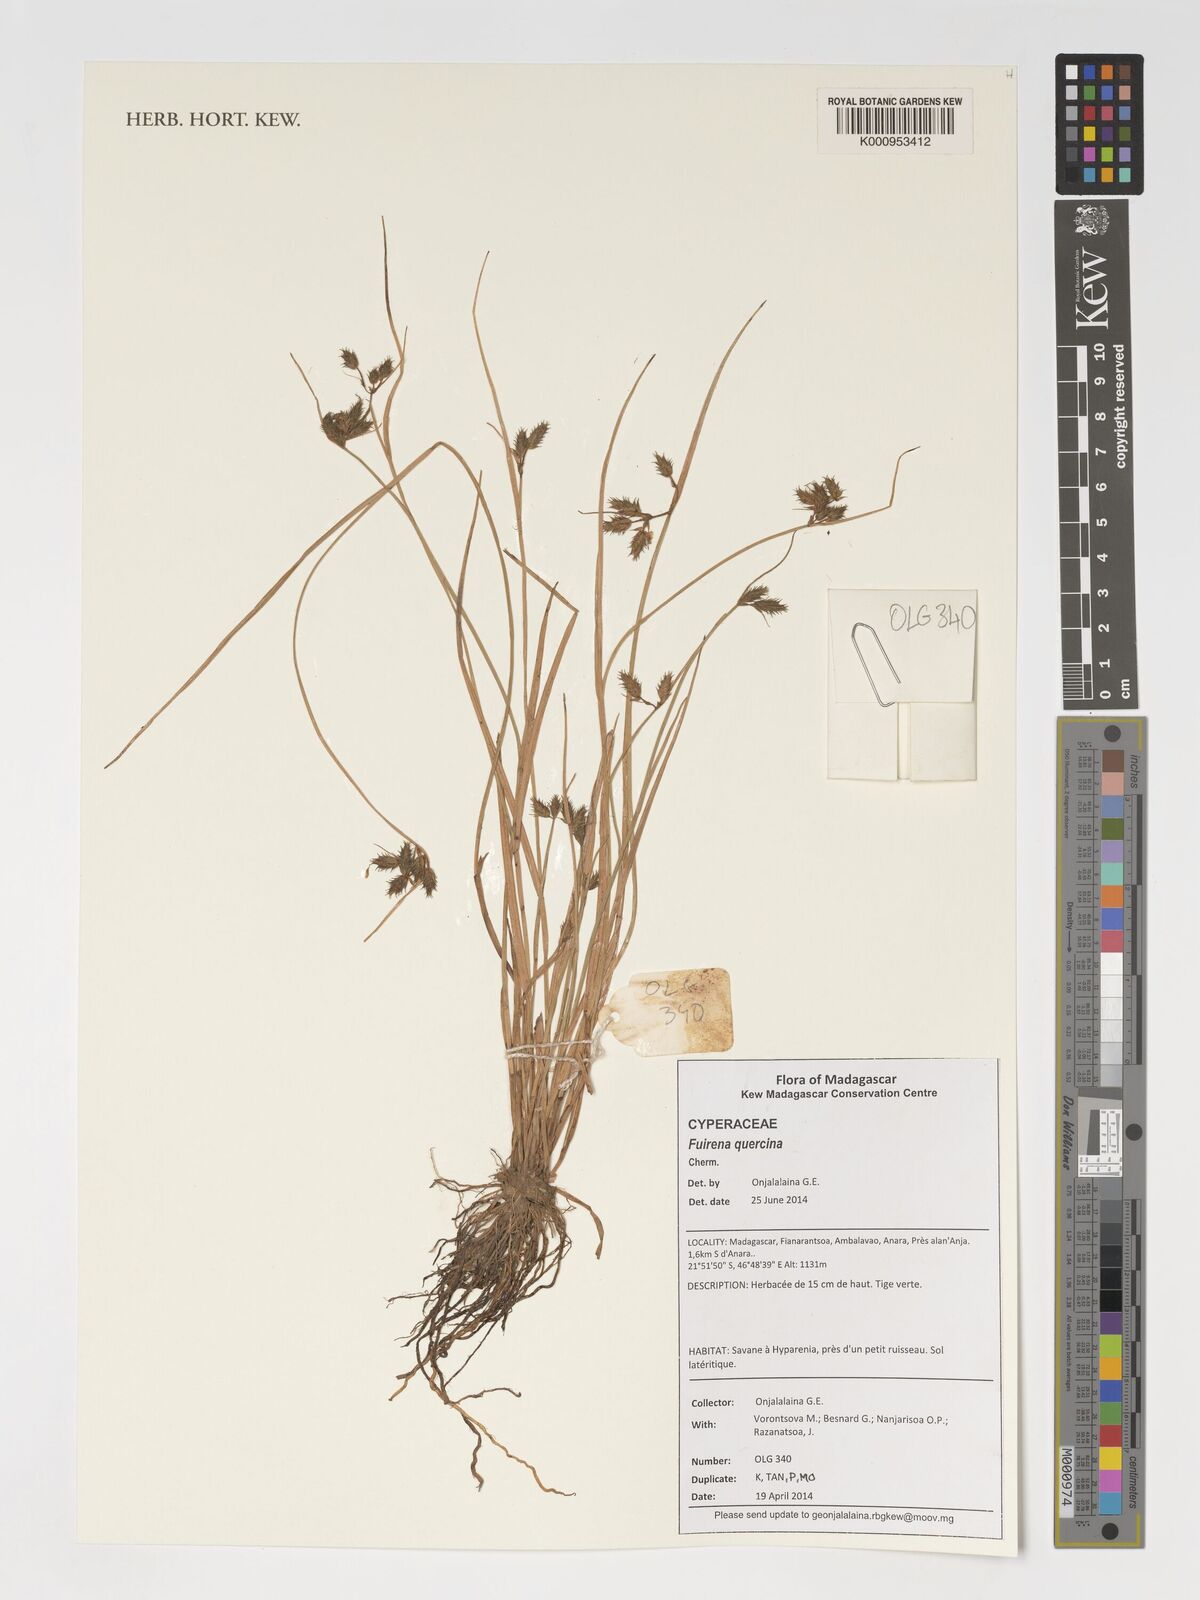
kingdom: Plantae
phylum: Tracheophyta
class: Liliopsida
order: Poales
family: Cyperaceae
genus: Fuirena
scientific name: Fuirena quercina
